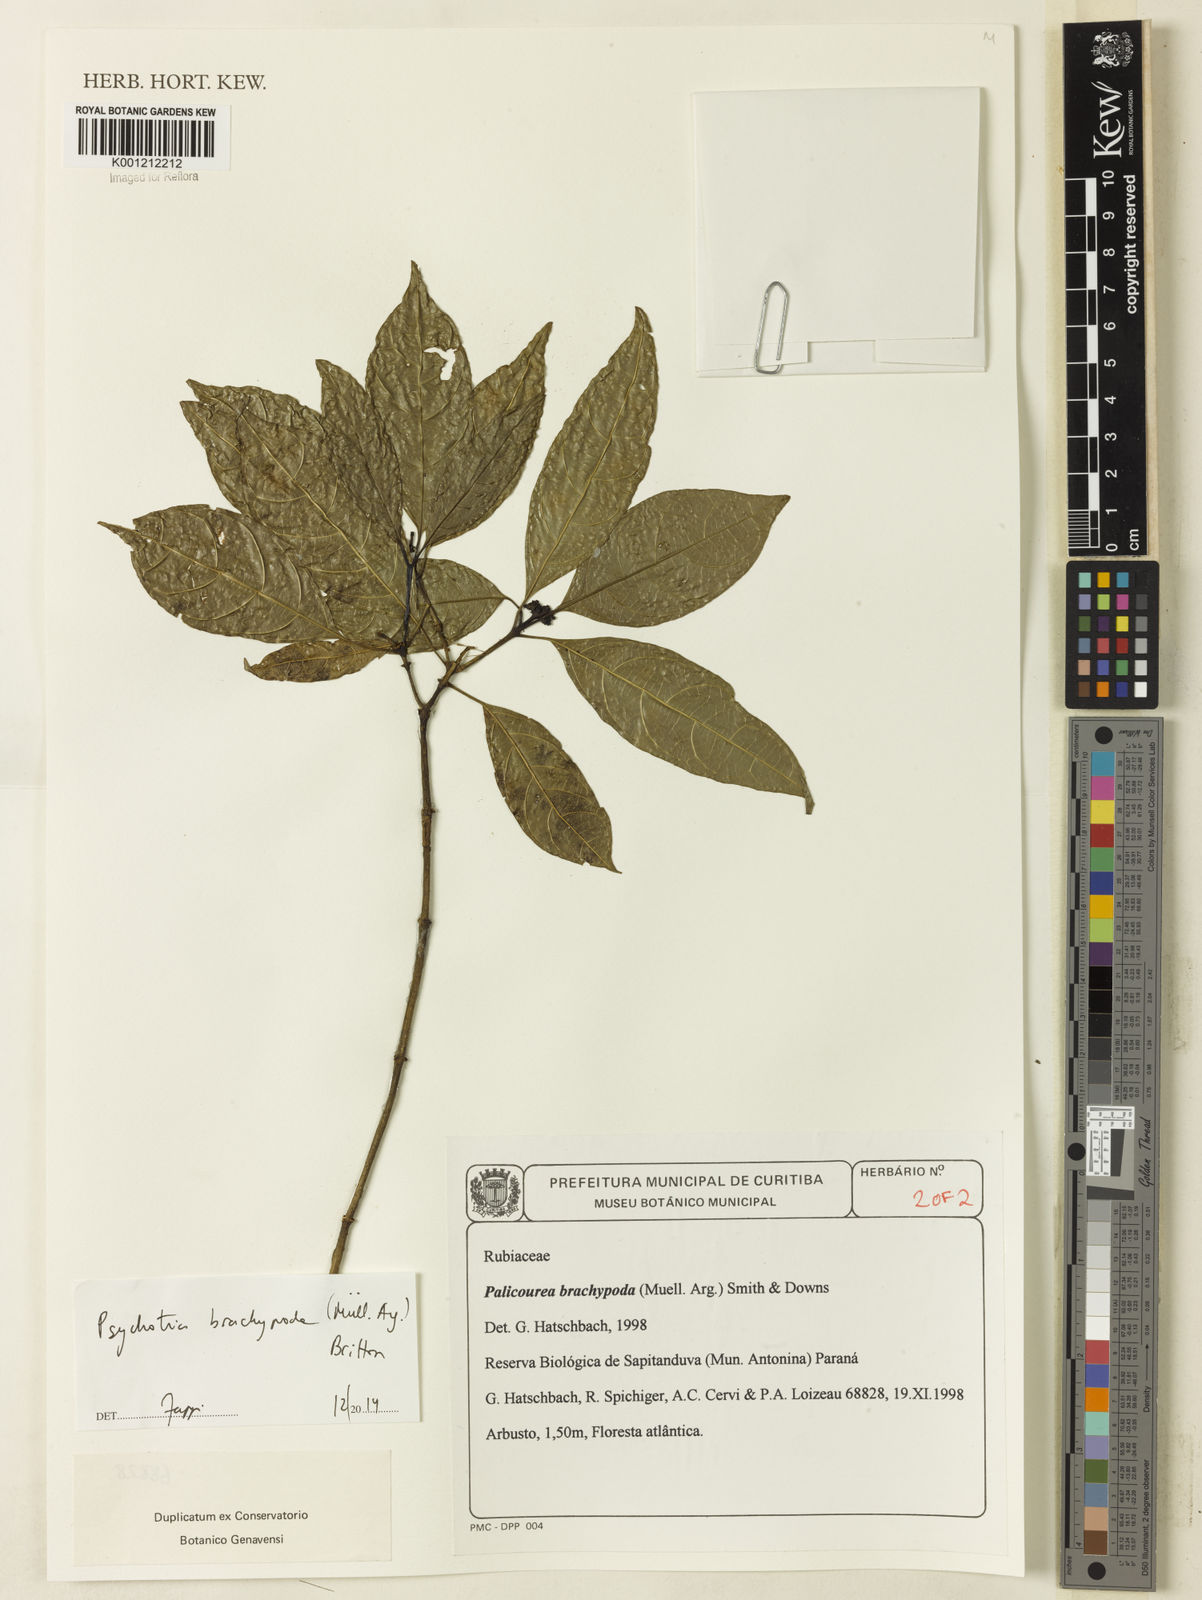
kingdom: Plantae
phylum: Tracheophyta
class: Magnoliopsida
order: Gentianales
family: Rubiaceae
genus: Psychotria
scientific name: Psychotria
